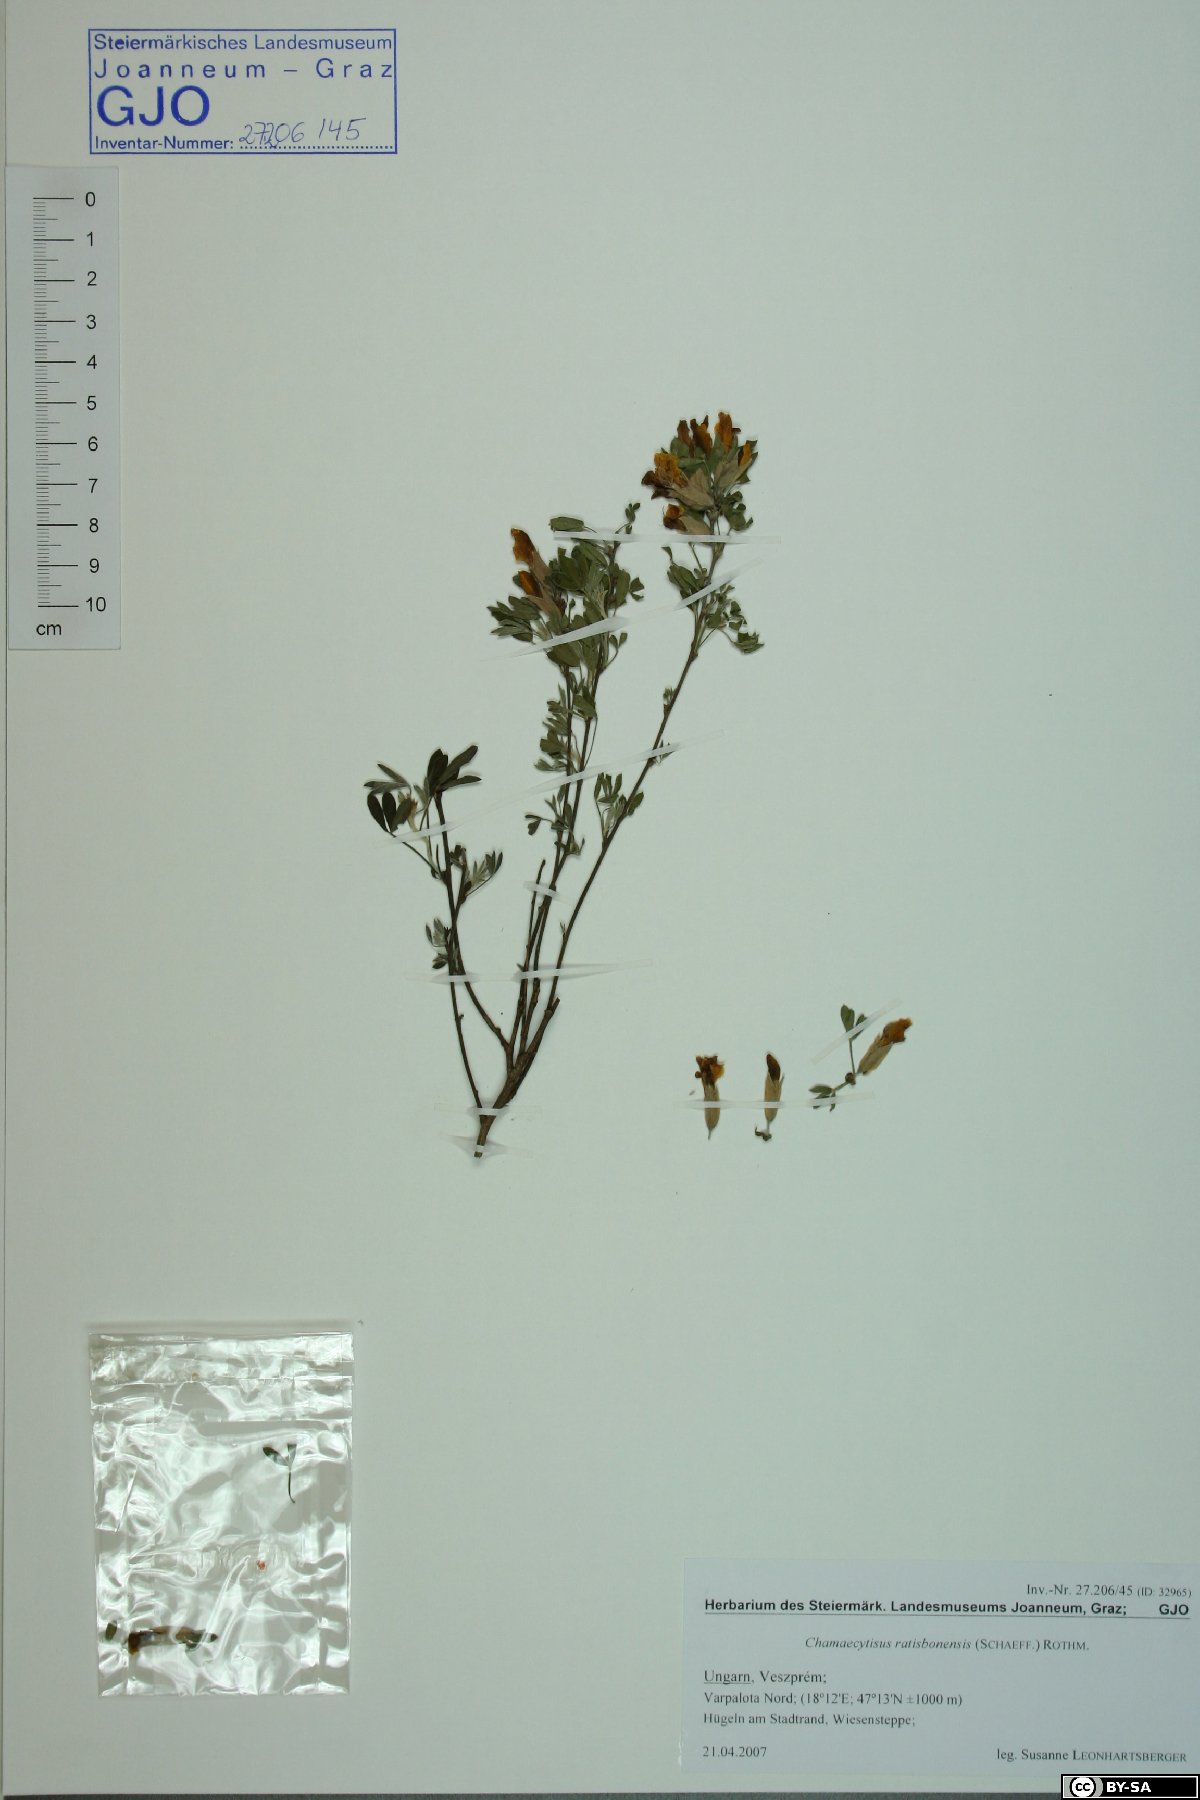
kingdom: Plantae
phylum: Tracheophyta
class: Magnoliopsida
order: Fabales
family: Fabaceae
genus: Chamaecytisus
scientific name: Chamaecytisus ratisbonensis
